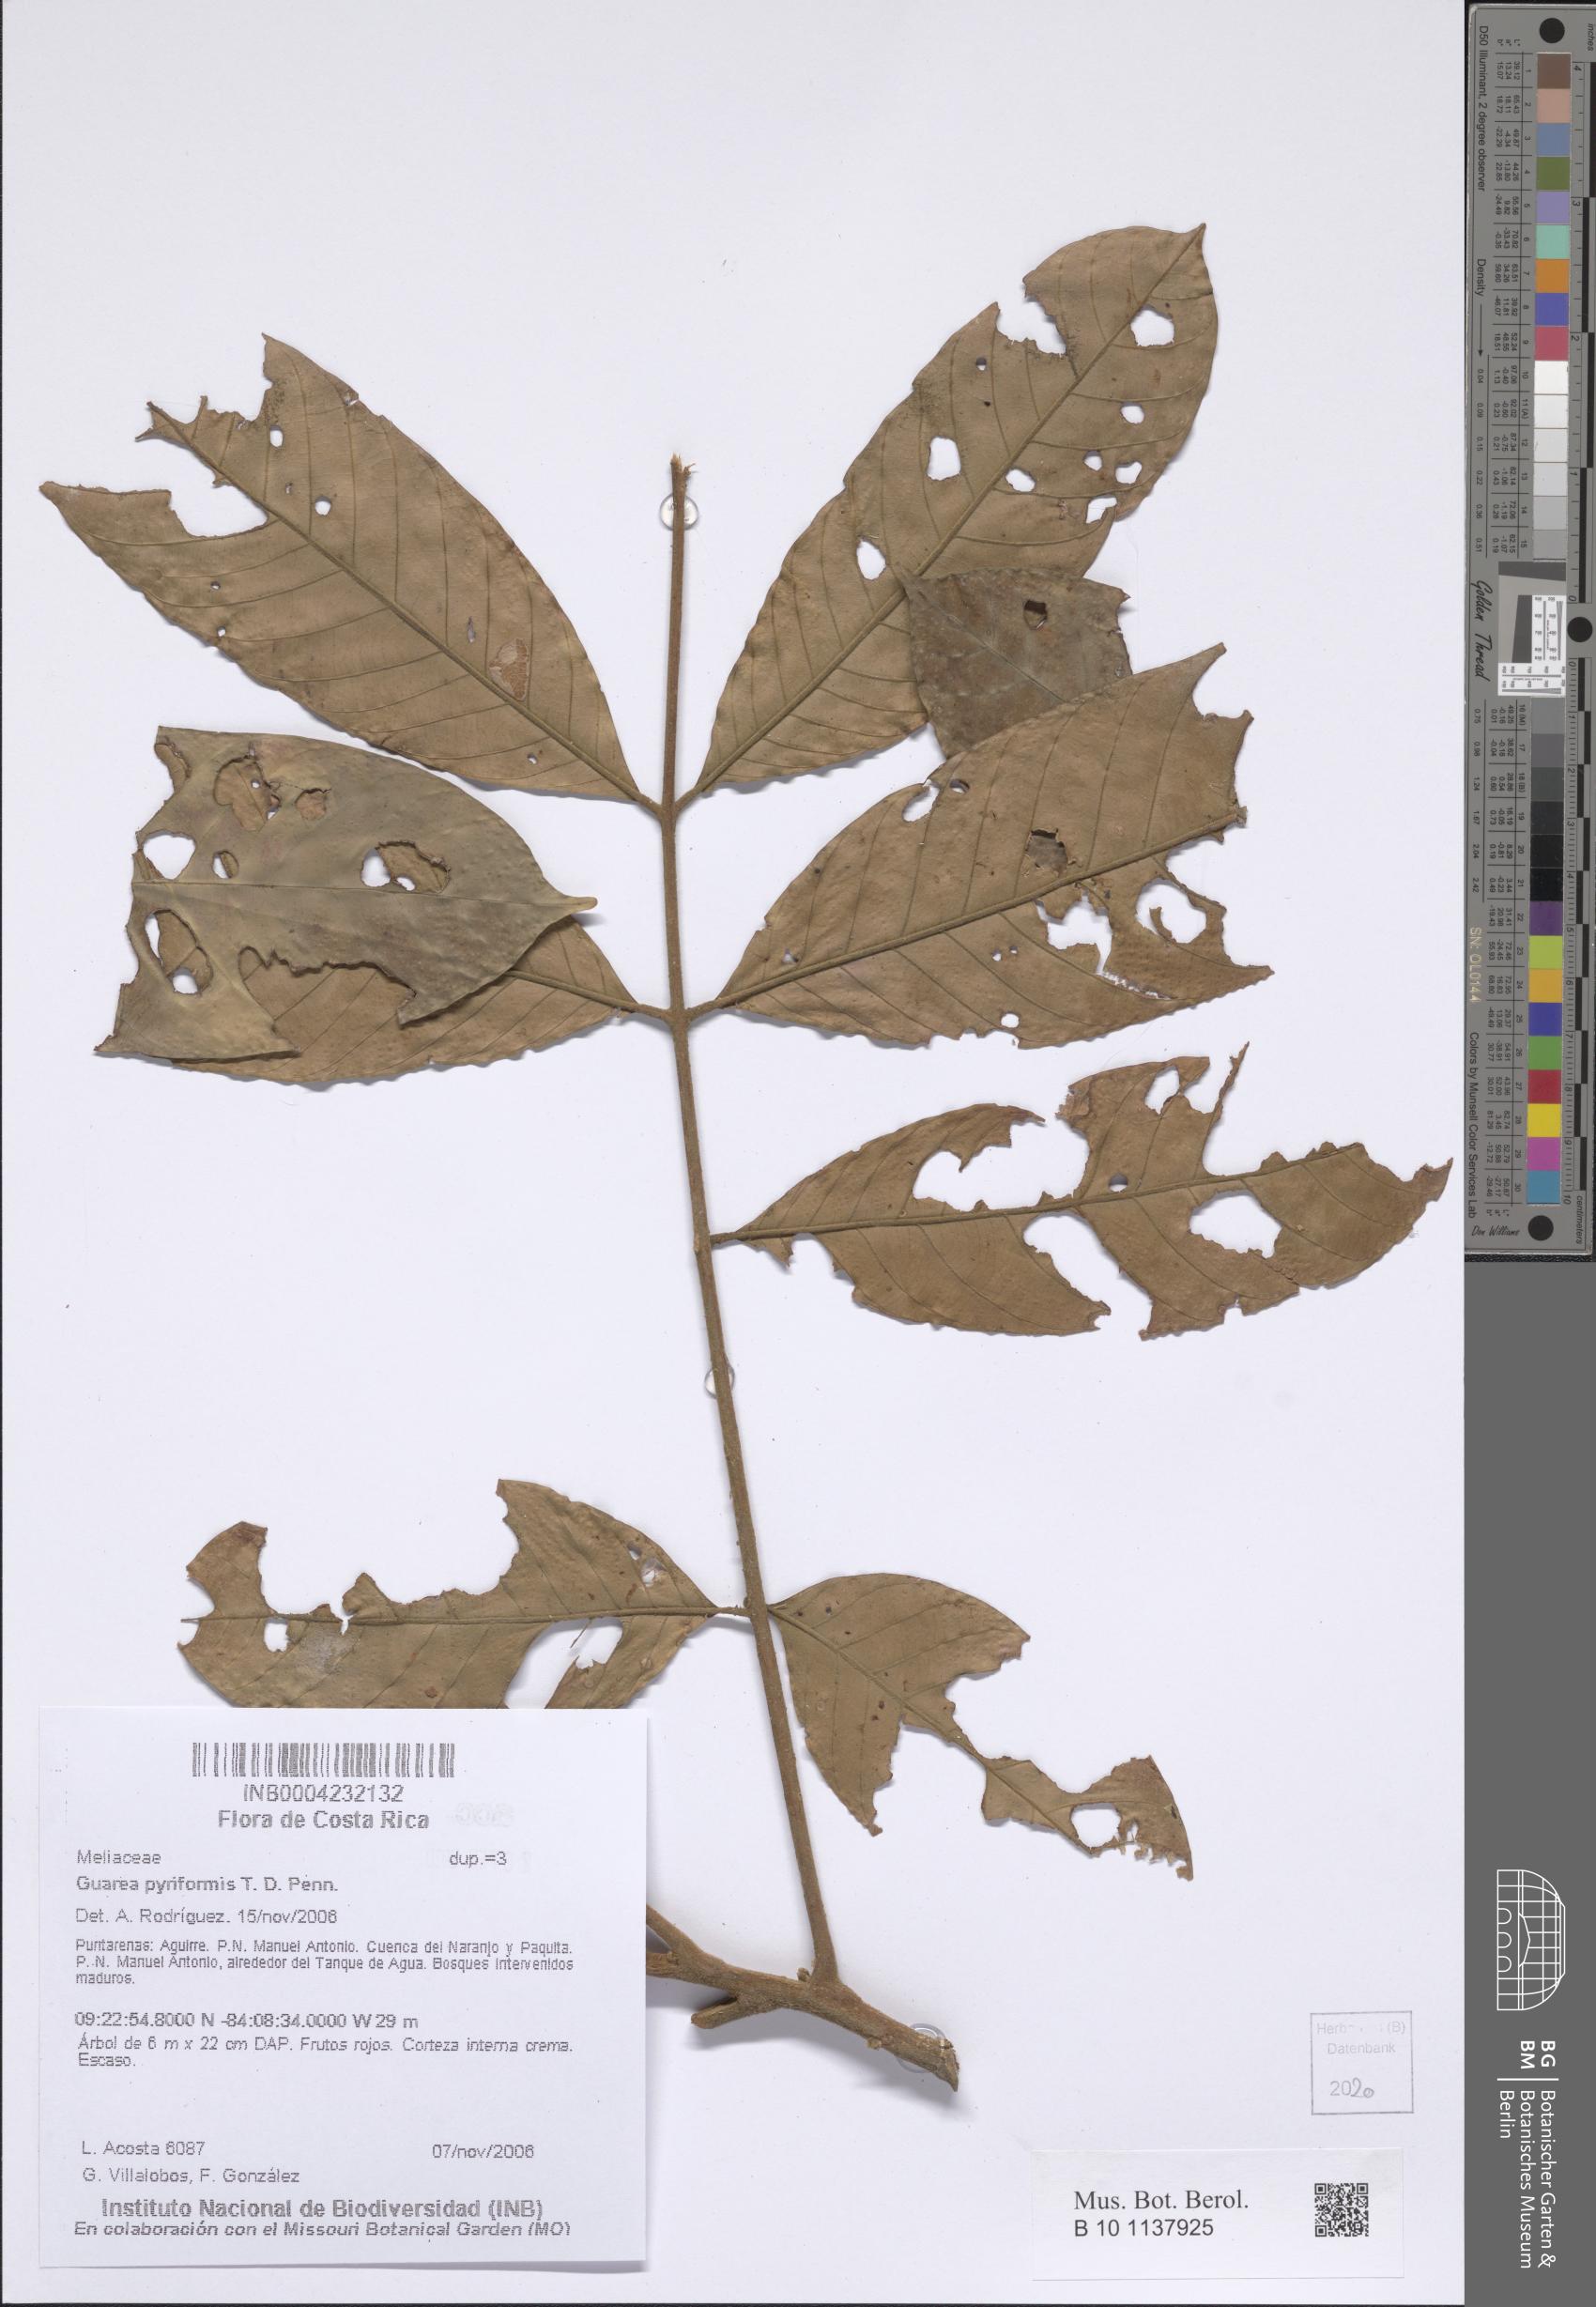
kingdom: Plantae
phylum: Tracheophyta
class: Magnoliopsida
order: Sapindales
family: Meliaceae
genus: Guarea
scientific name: Guarea pyriformis
